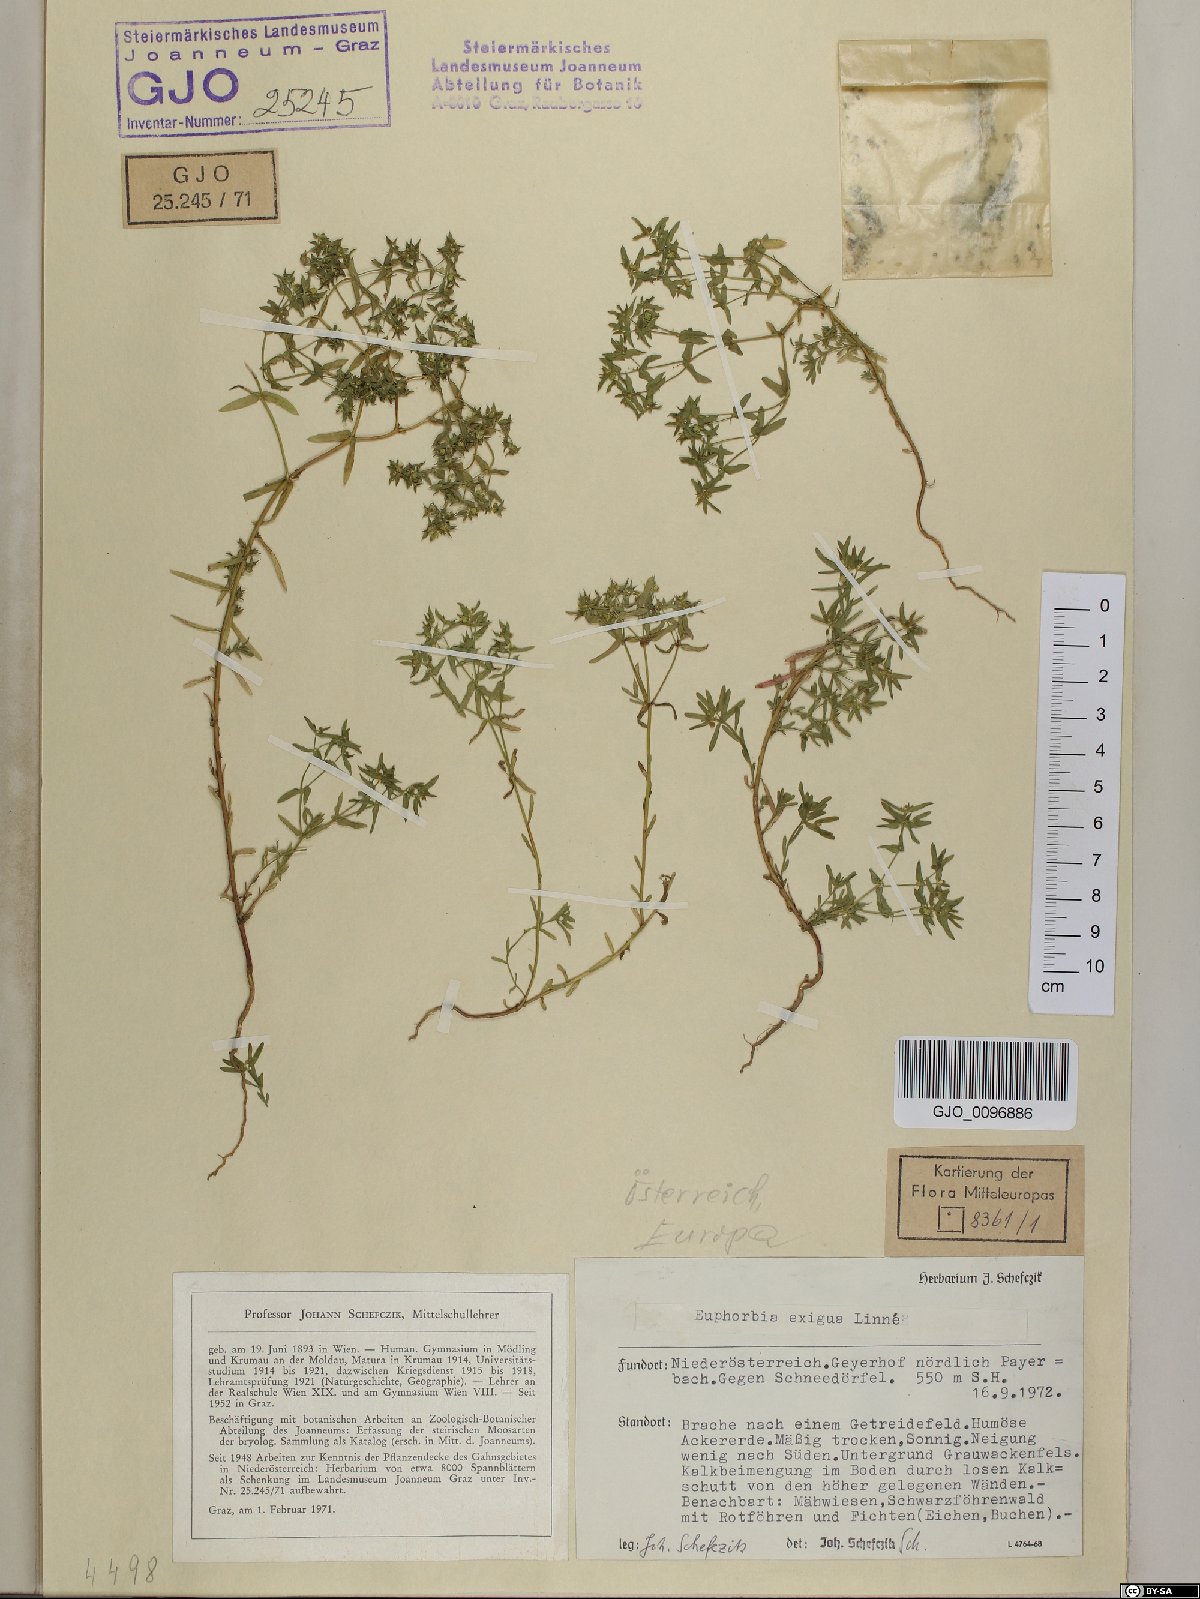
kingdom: Plantae
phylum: Tracheophyta
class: Magnoliopsida
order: Malpighiales
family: Euphorbiaceae
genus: Euphorbia
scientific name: Euphorbia exigua
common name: Dwarf spurge
